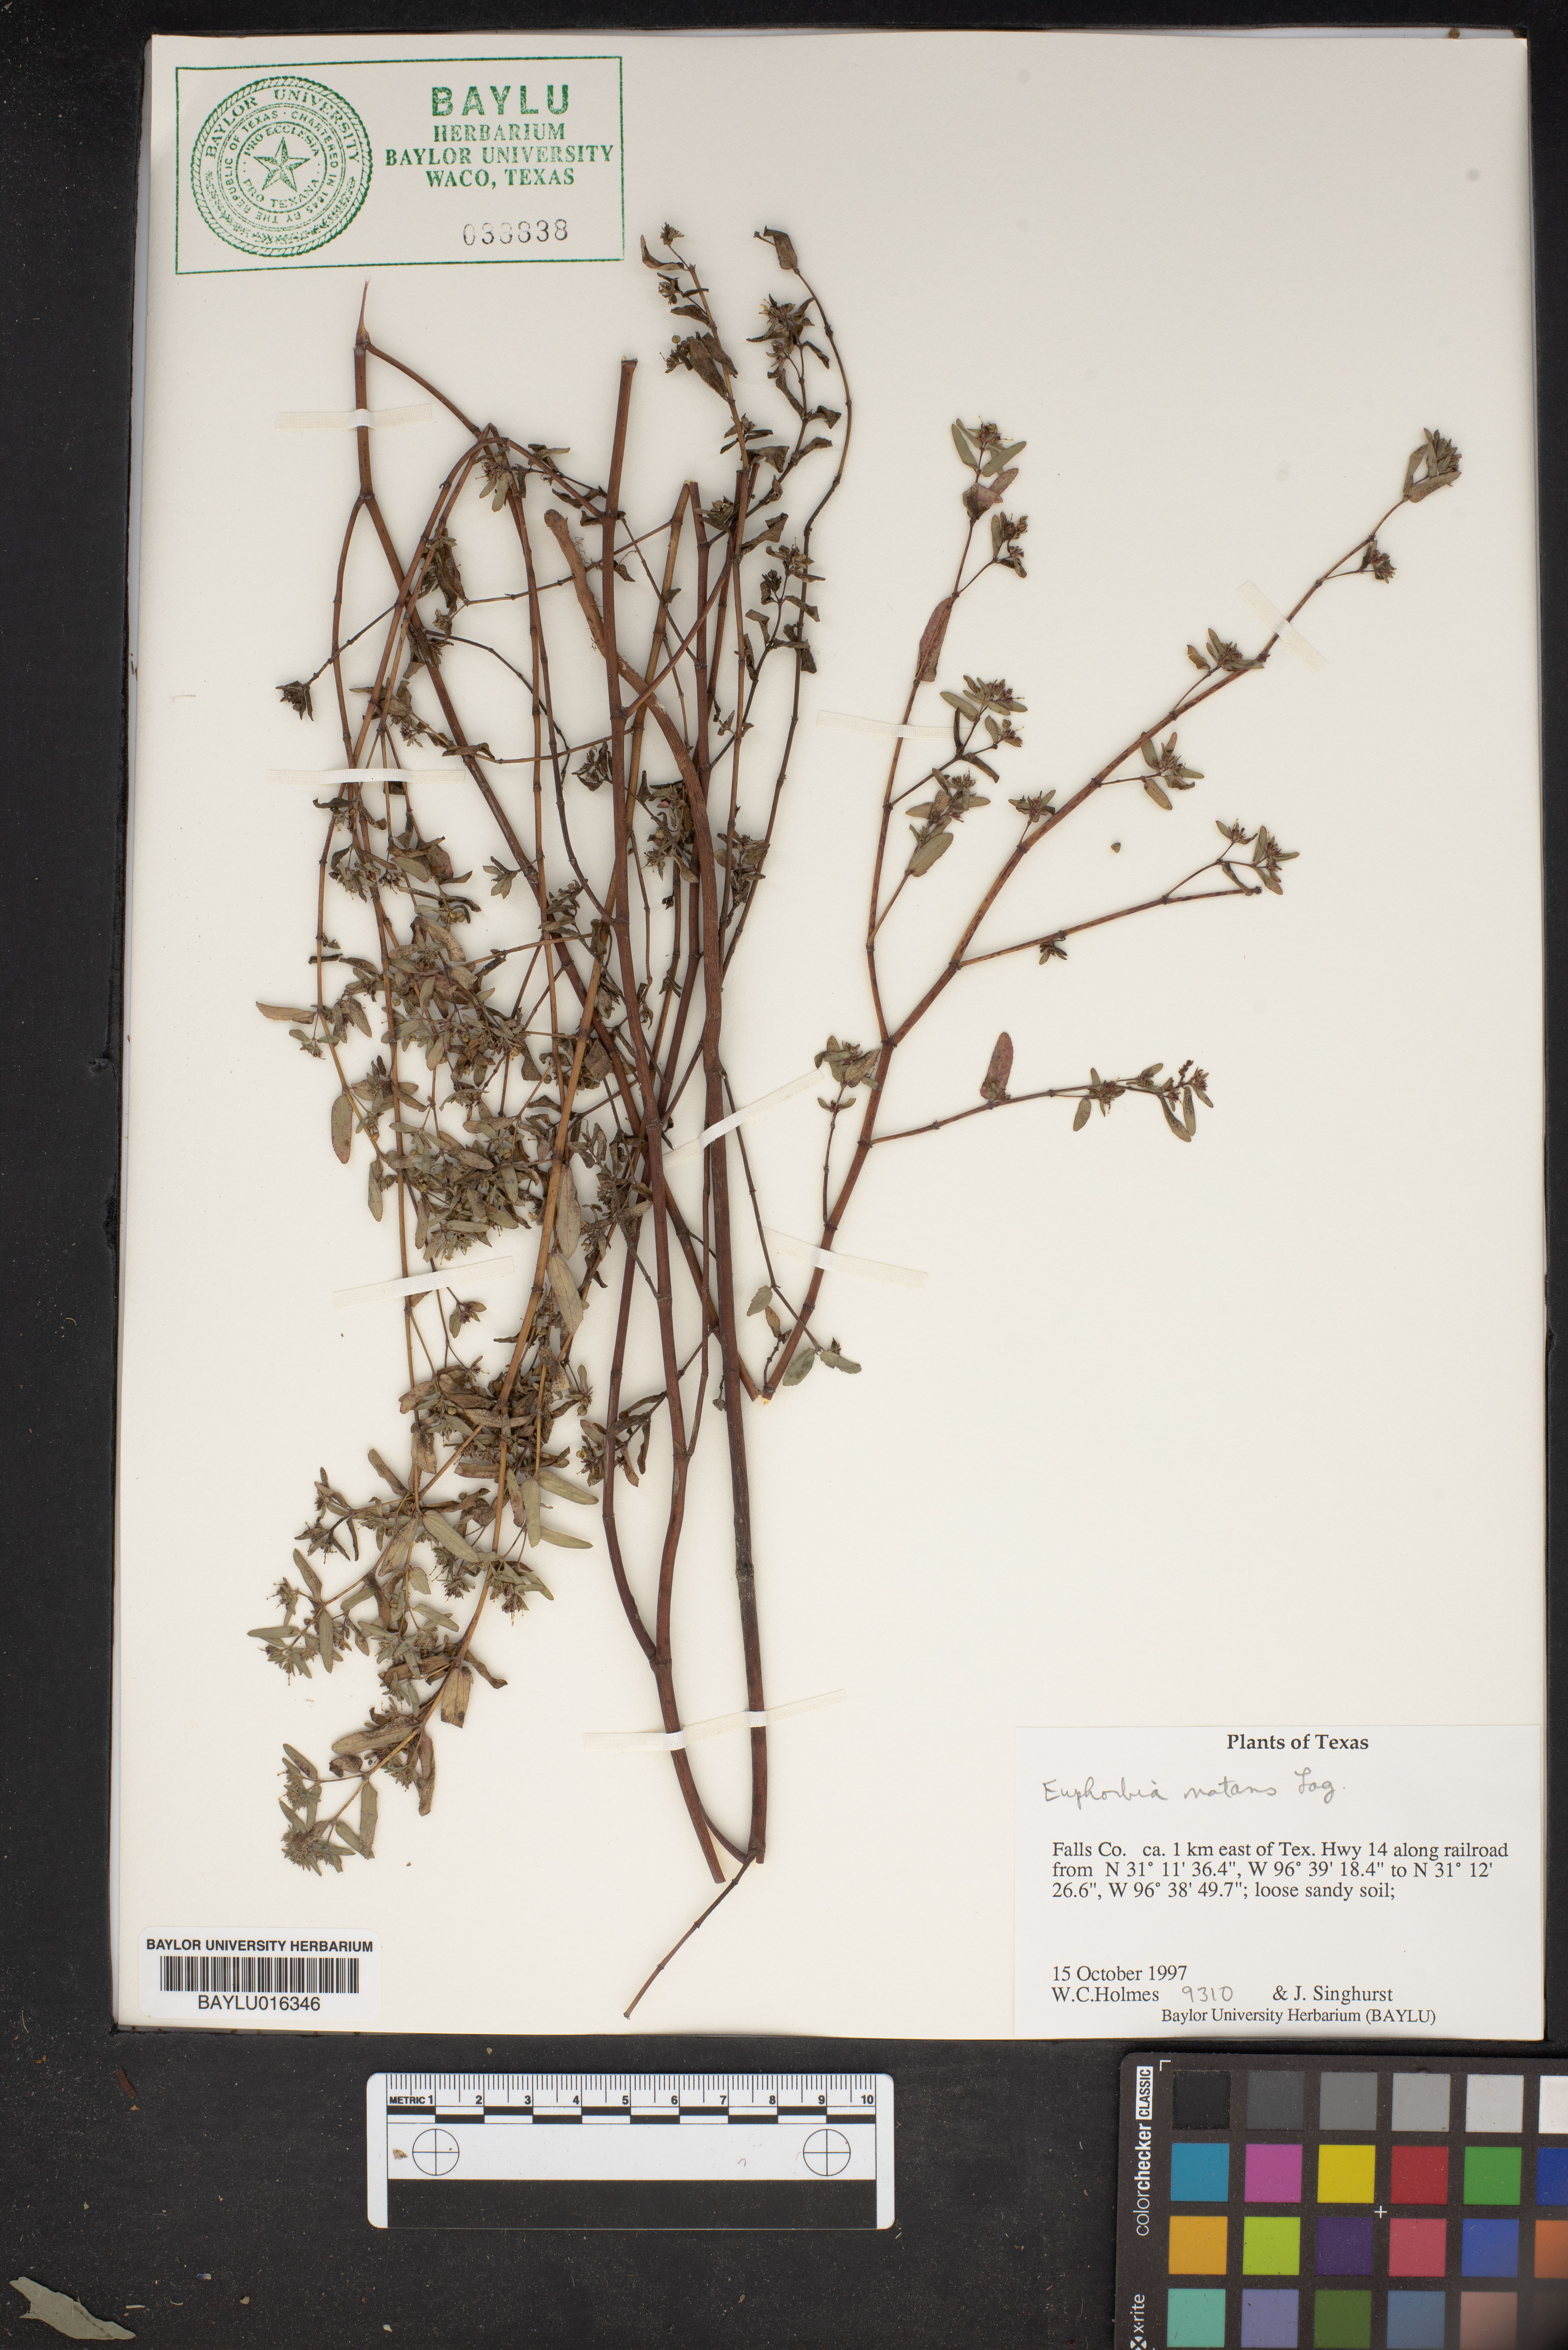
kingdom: Plantae
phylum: Tracheophyta
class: Magnoliopsida
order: Malpighiales
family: Euphorbiaceae
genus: Euphorbia
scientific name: Euphorbia nutans
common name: Eyebane
